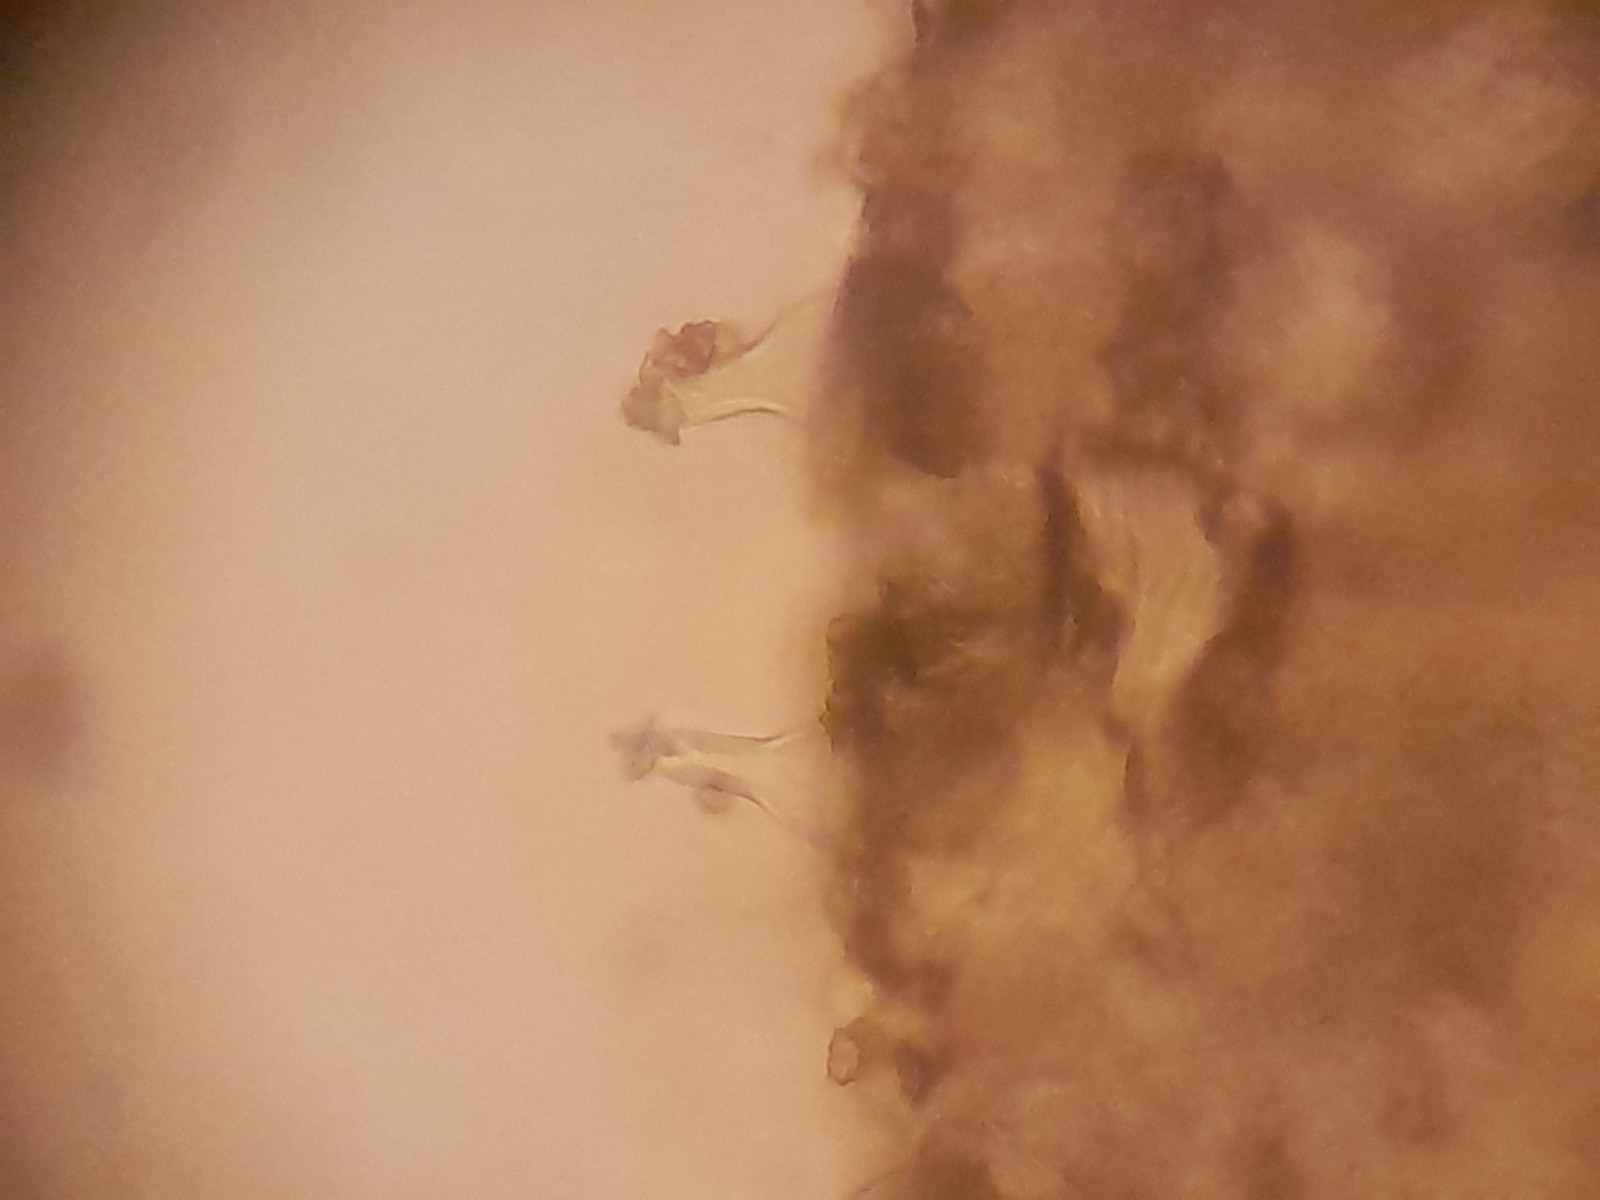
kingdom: Fungi
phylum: Basidiomycota
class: Agaricomycetes
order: Agaricales
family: Inocybaceae
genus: Inocybe
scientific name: Inocybe
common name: trævlhat
